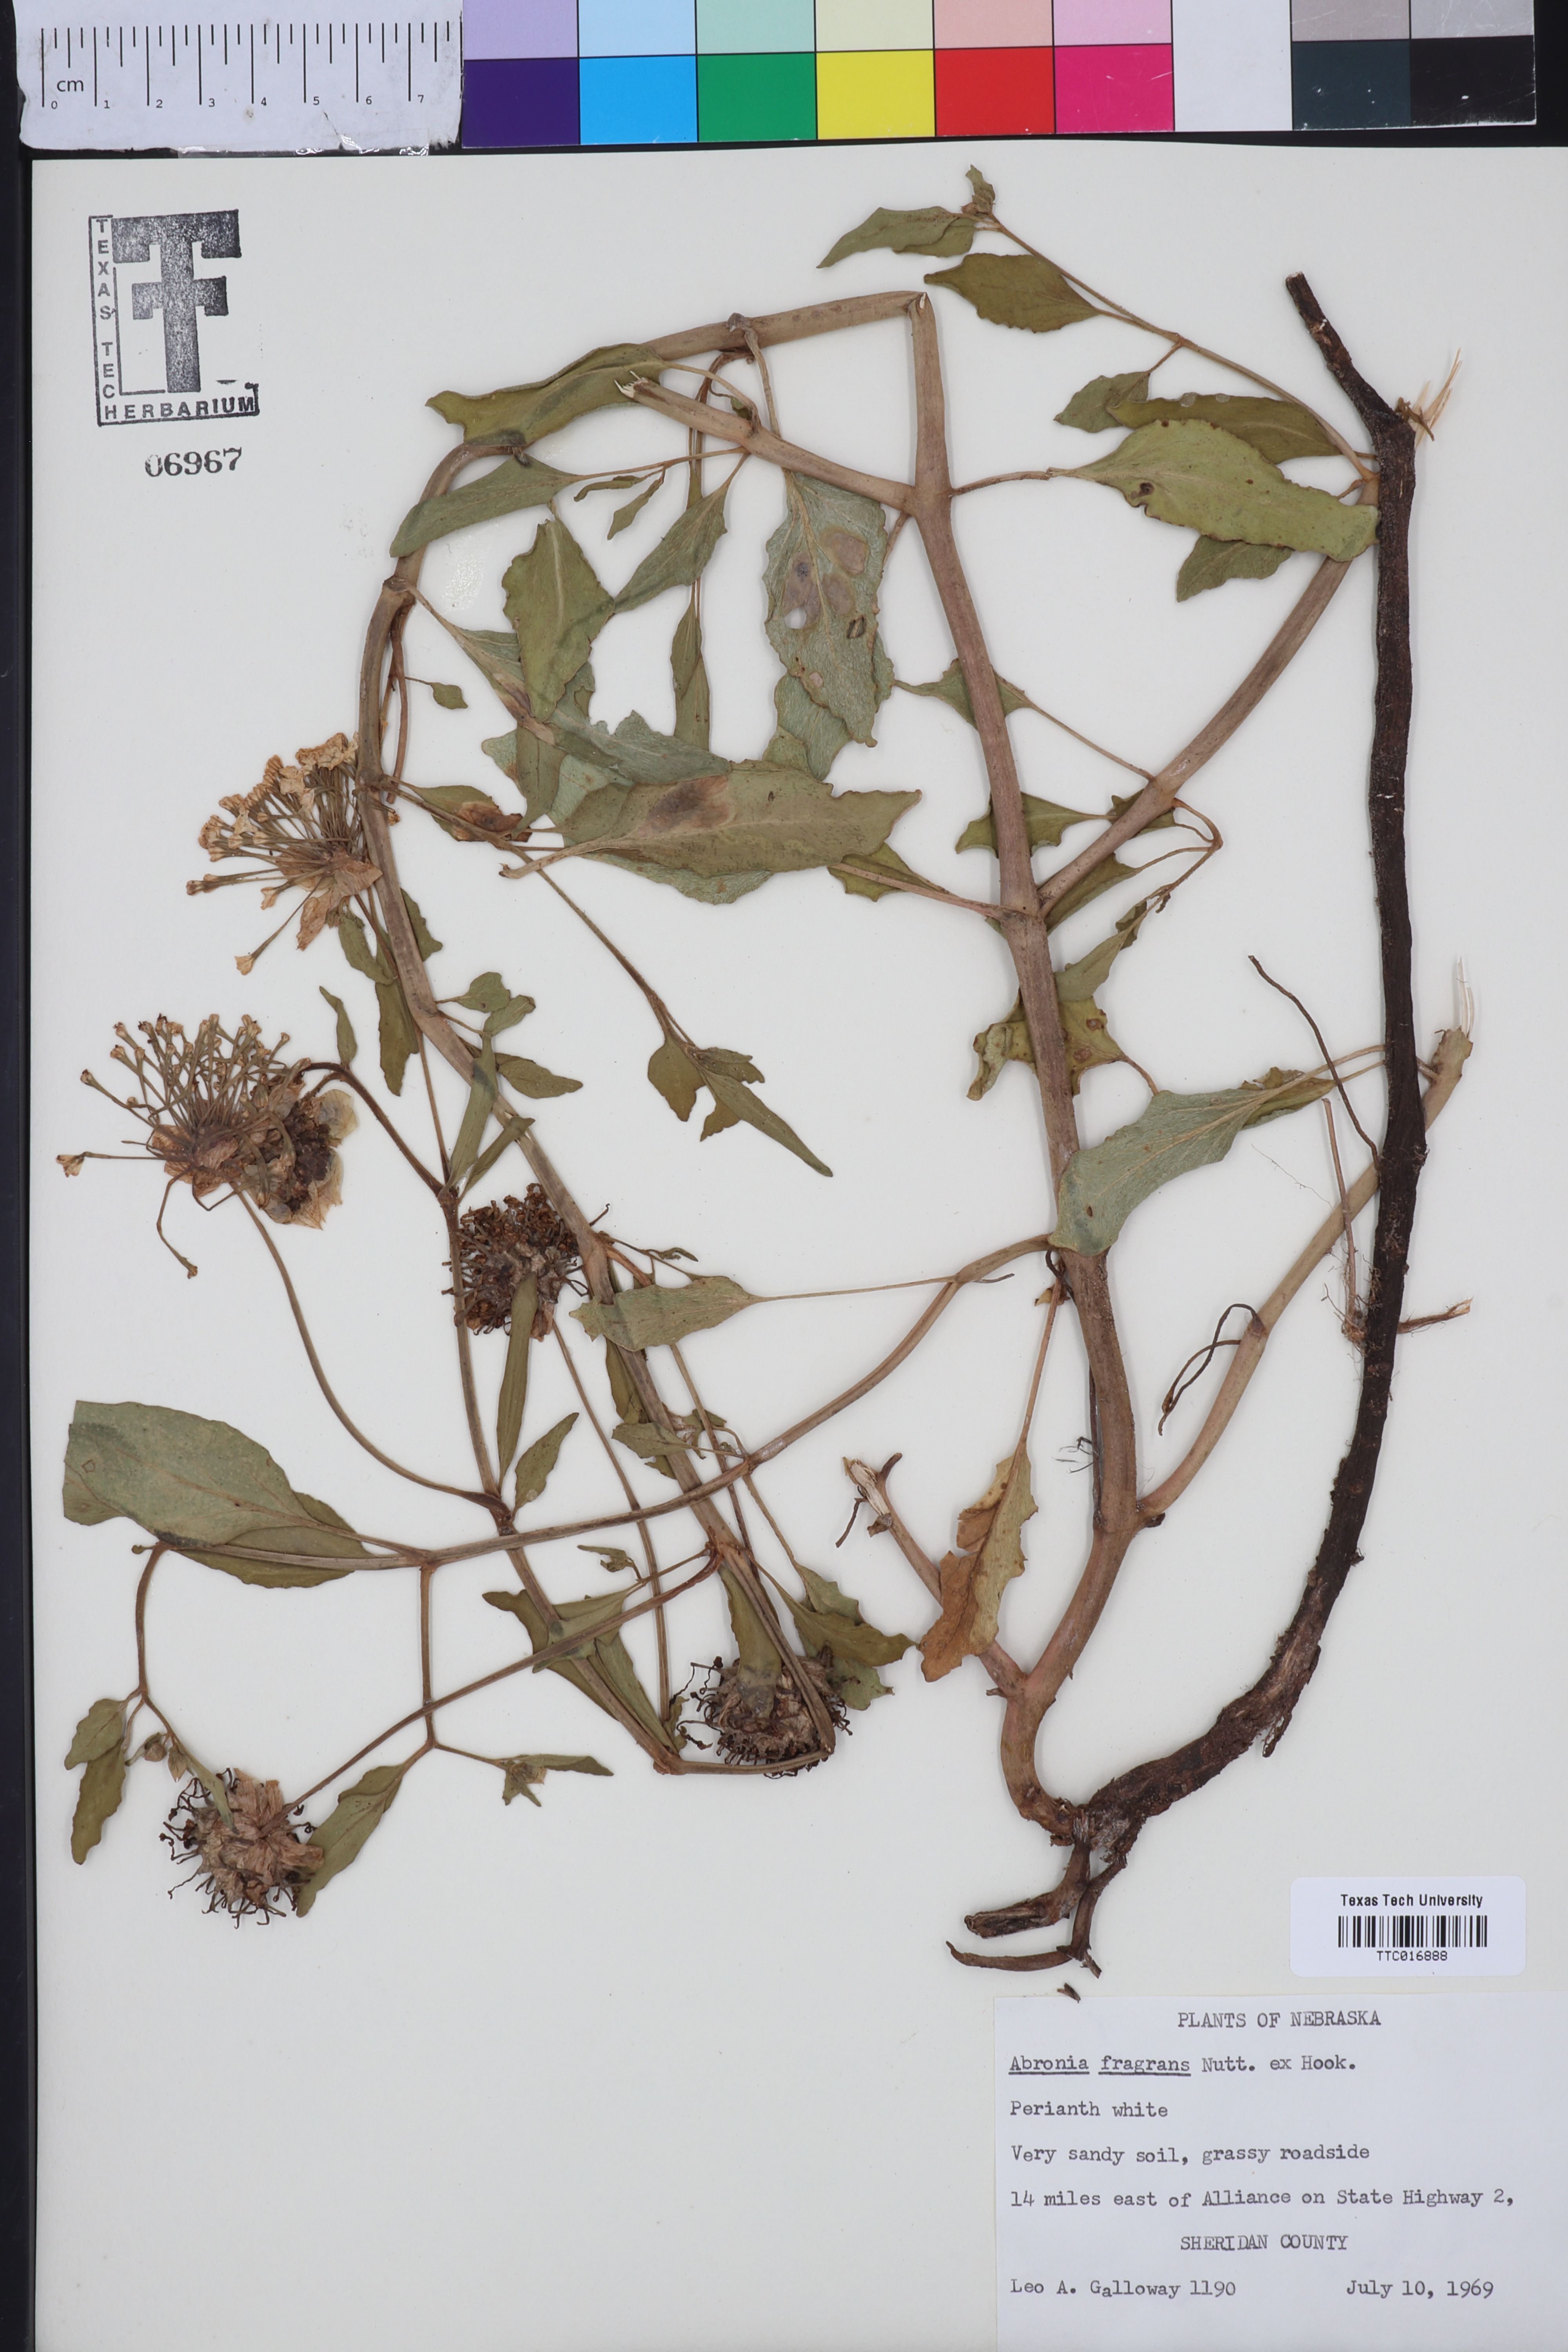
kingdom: Plantae
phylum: Tracheophyta
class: Magnoliopsida
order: Caryophyllales
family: Nyctaginaceae
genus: Abronia
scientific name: Abronia fragrans
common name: Fragrant sand-verbena
